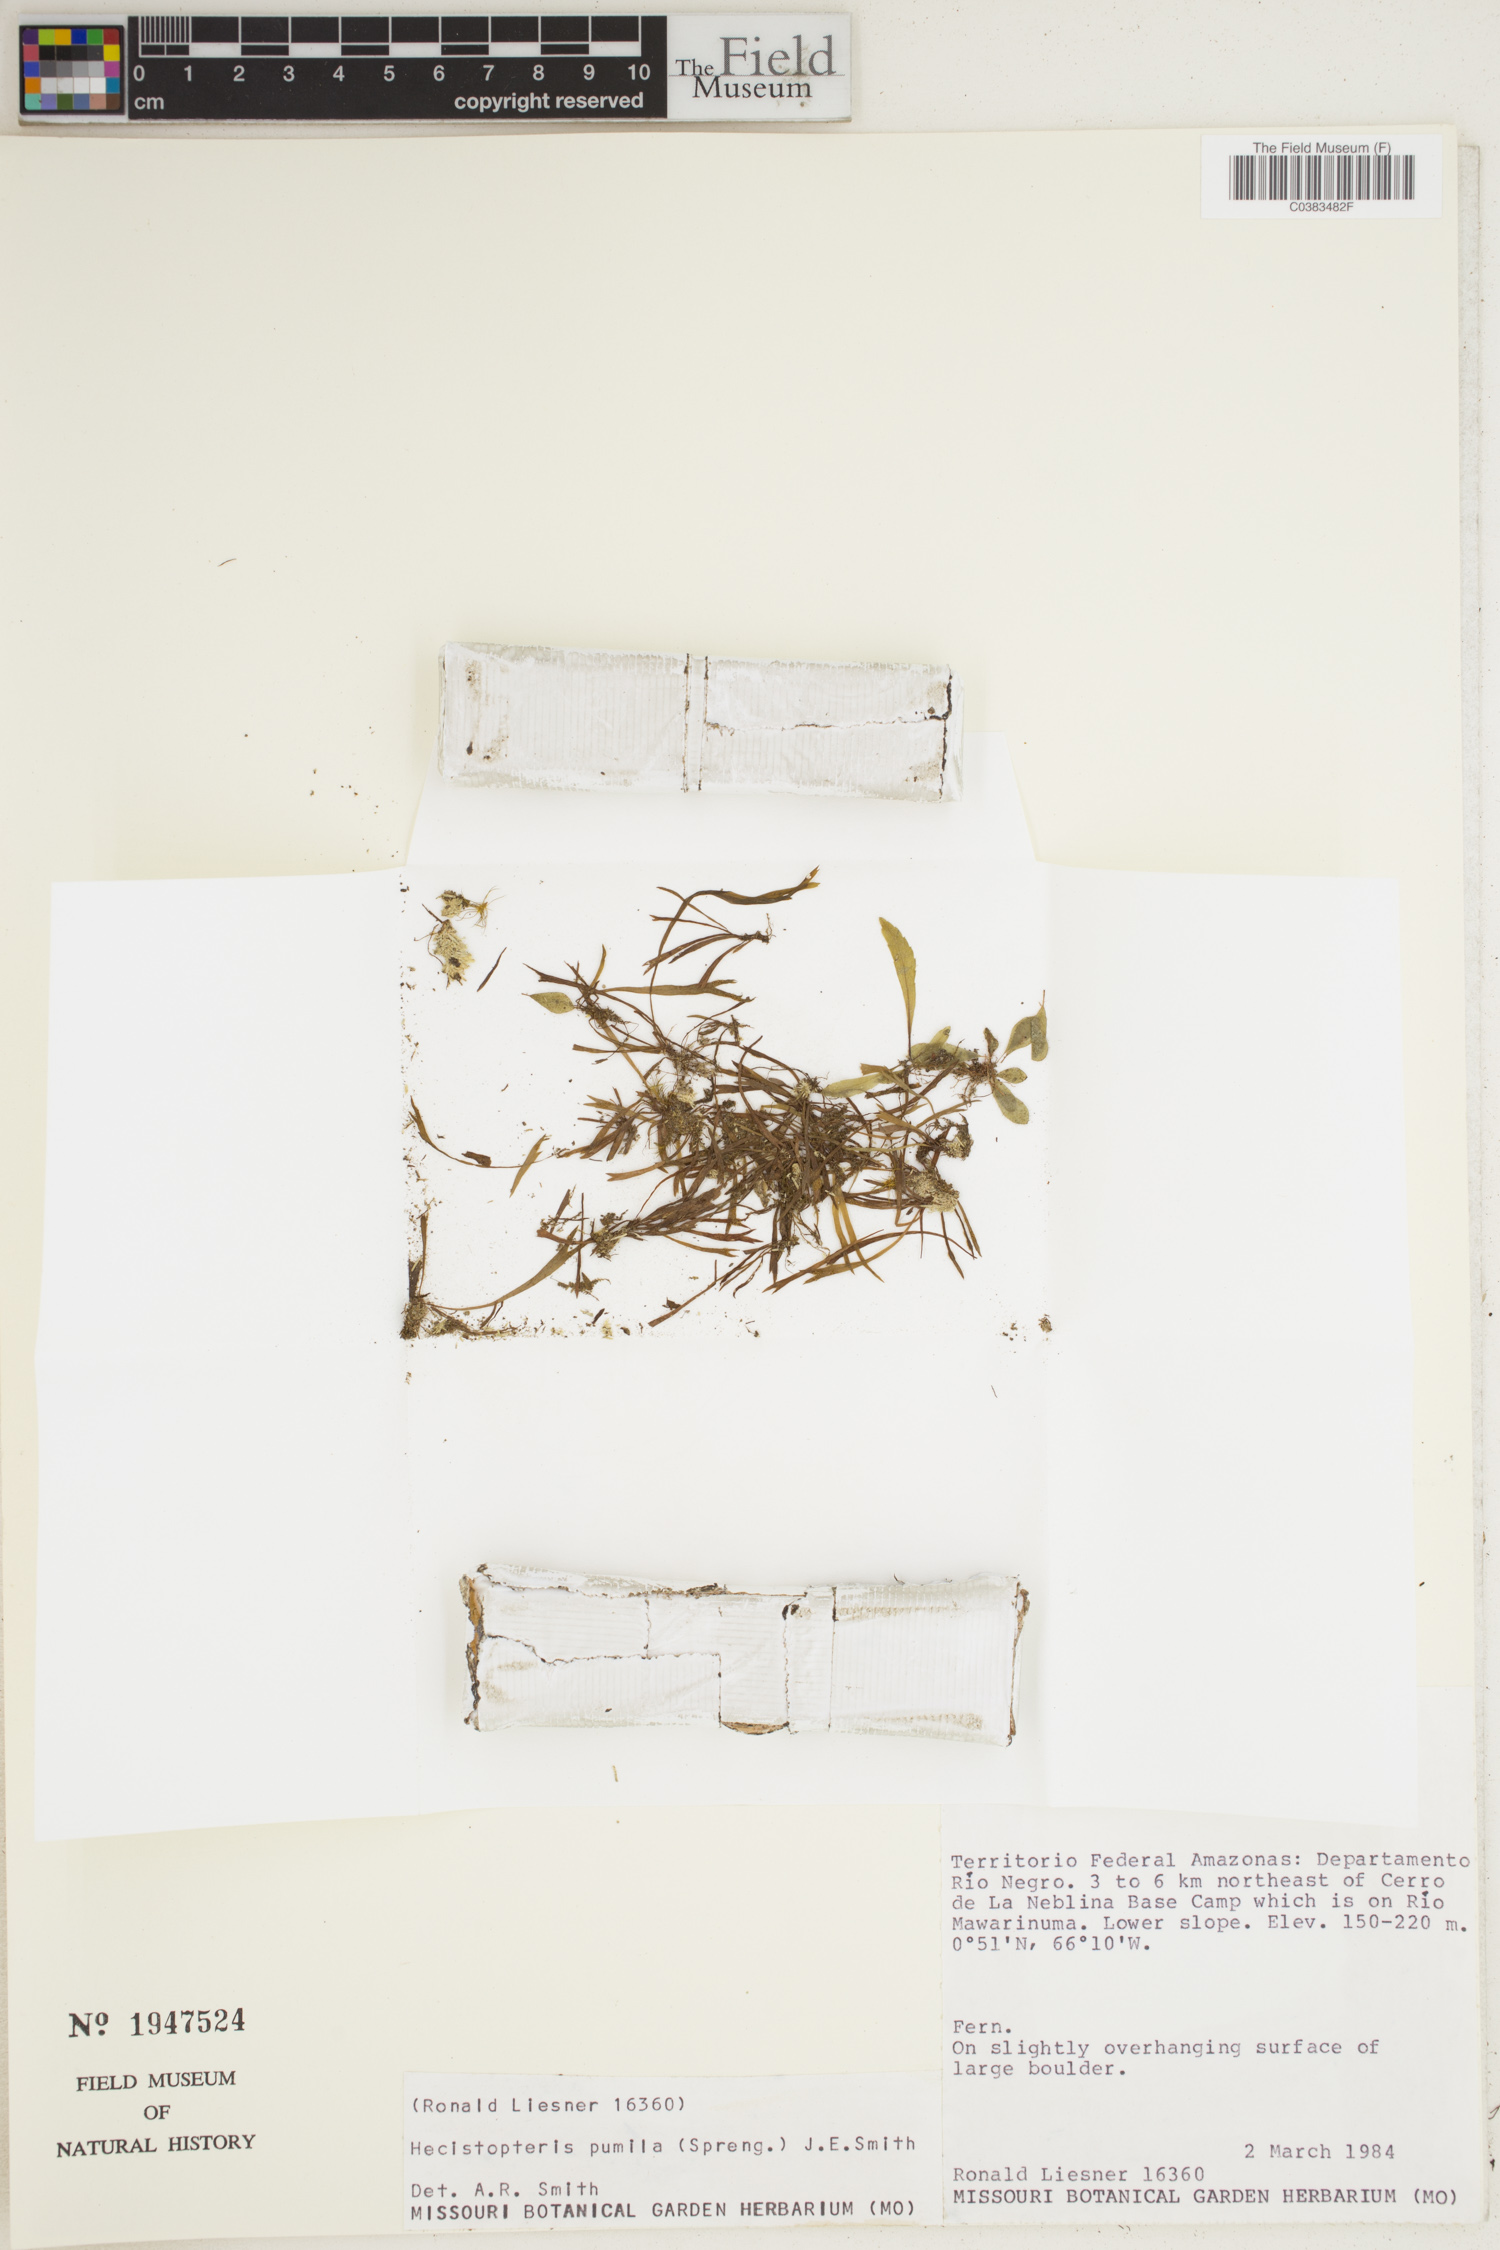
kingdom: Plantae
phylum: Tracheophyta
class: Polypodiopsida
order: Polypodiales
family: Pteridaceae
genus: Hecistopteris
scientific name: Hecistopteris pumila
